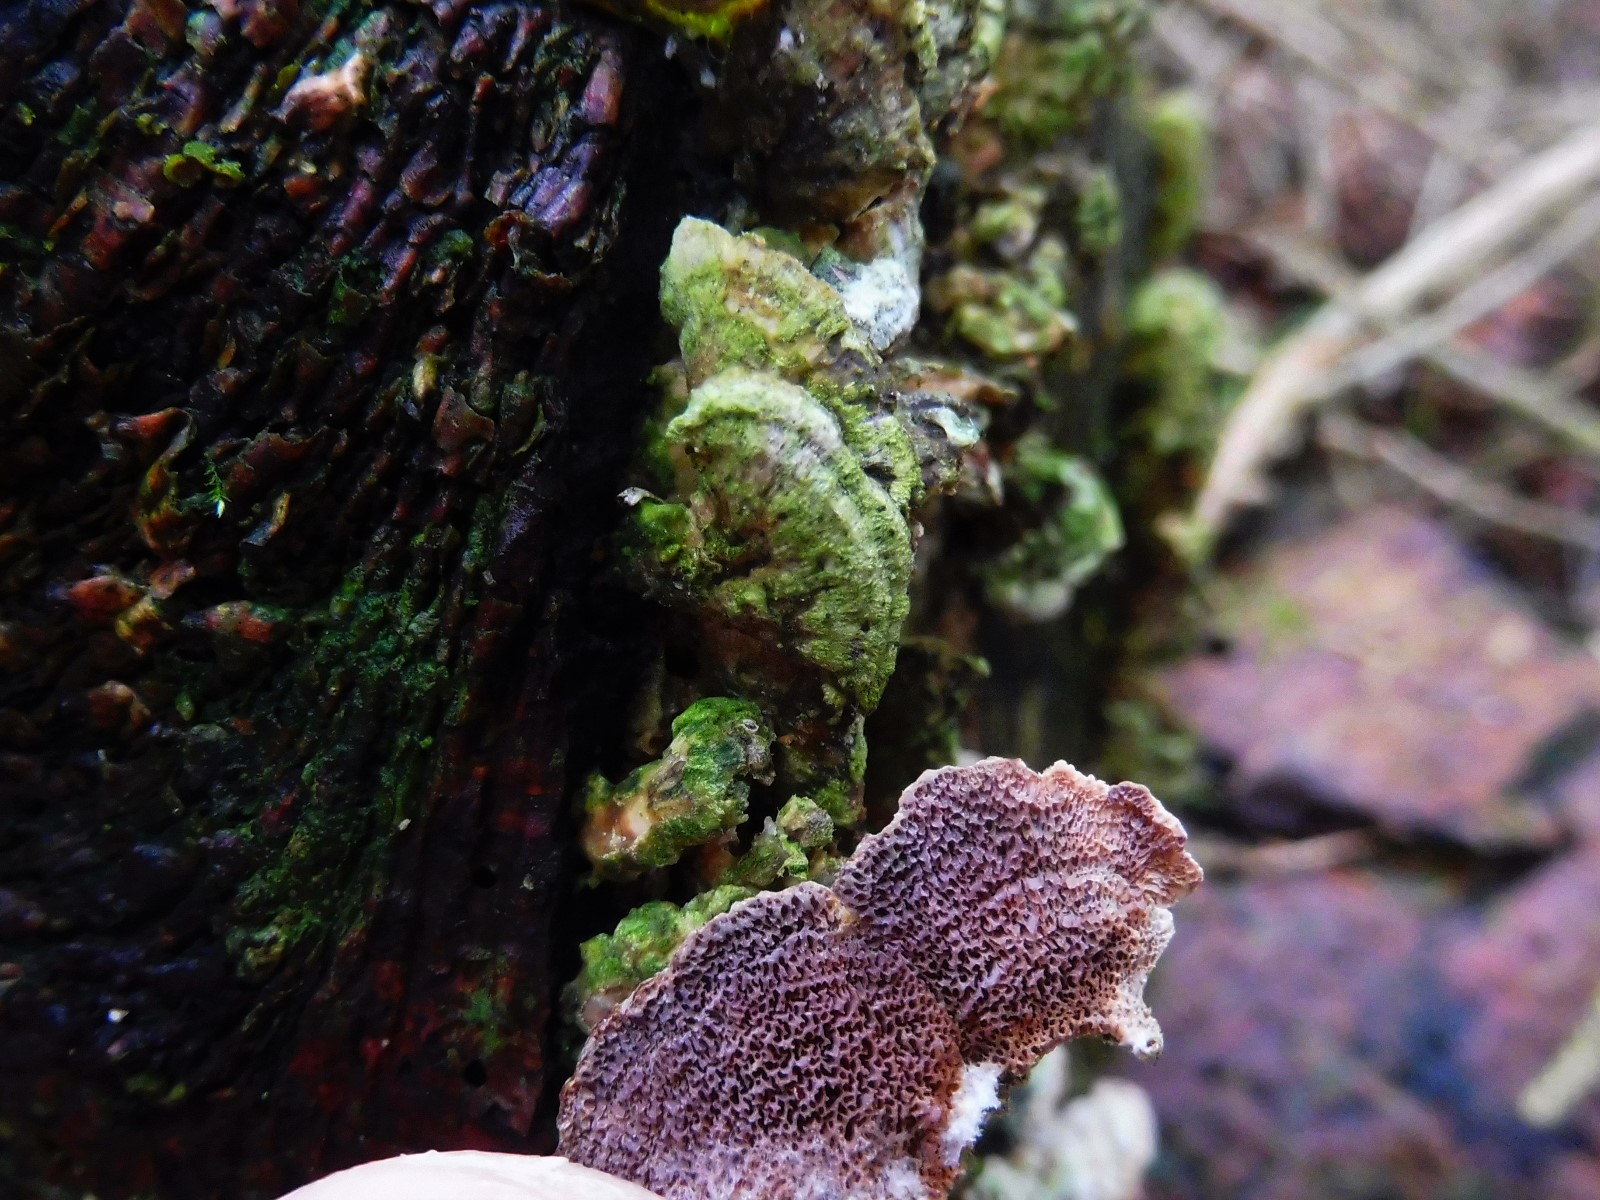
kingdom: Fungi
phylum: Basidiomycota
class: Agaricomycetes
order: Hymenochaetales
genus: Trichaptum
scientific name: Trichaptum abietinum
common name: almindelig violporesvamp
